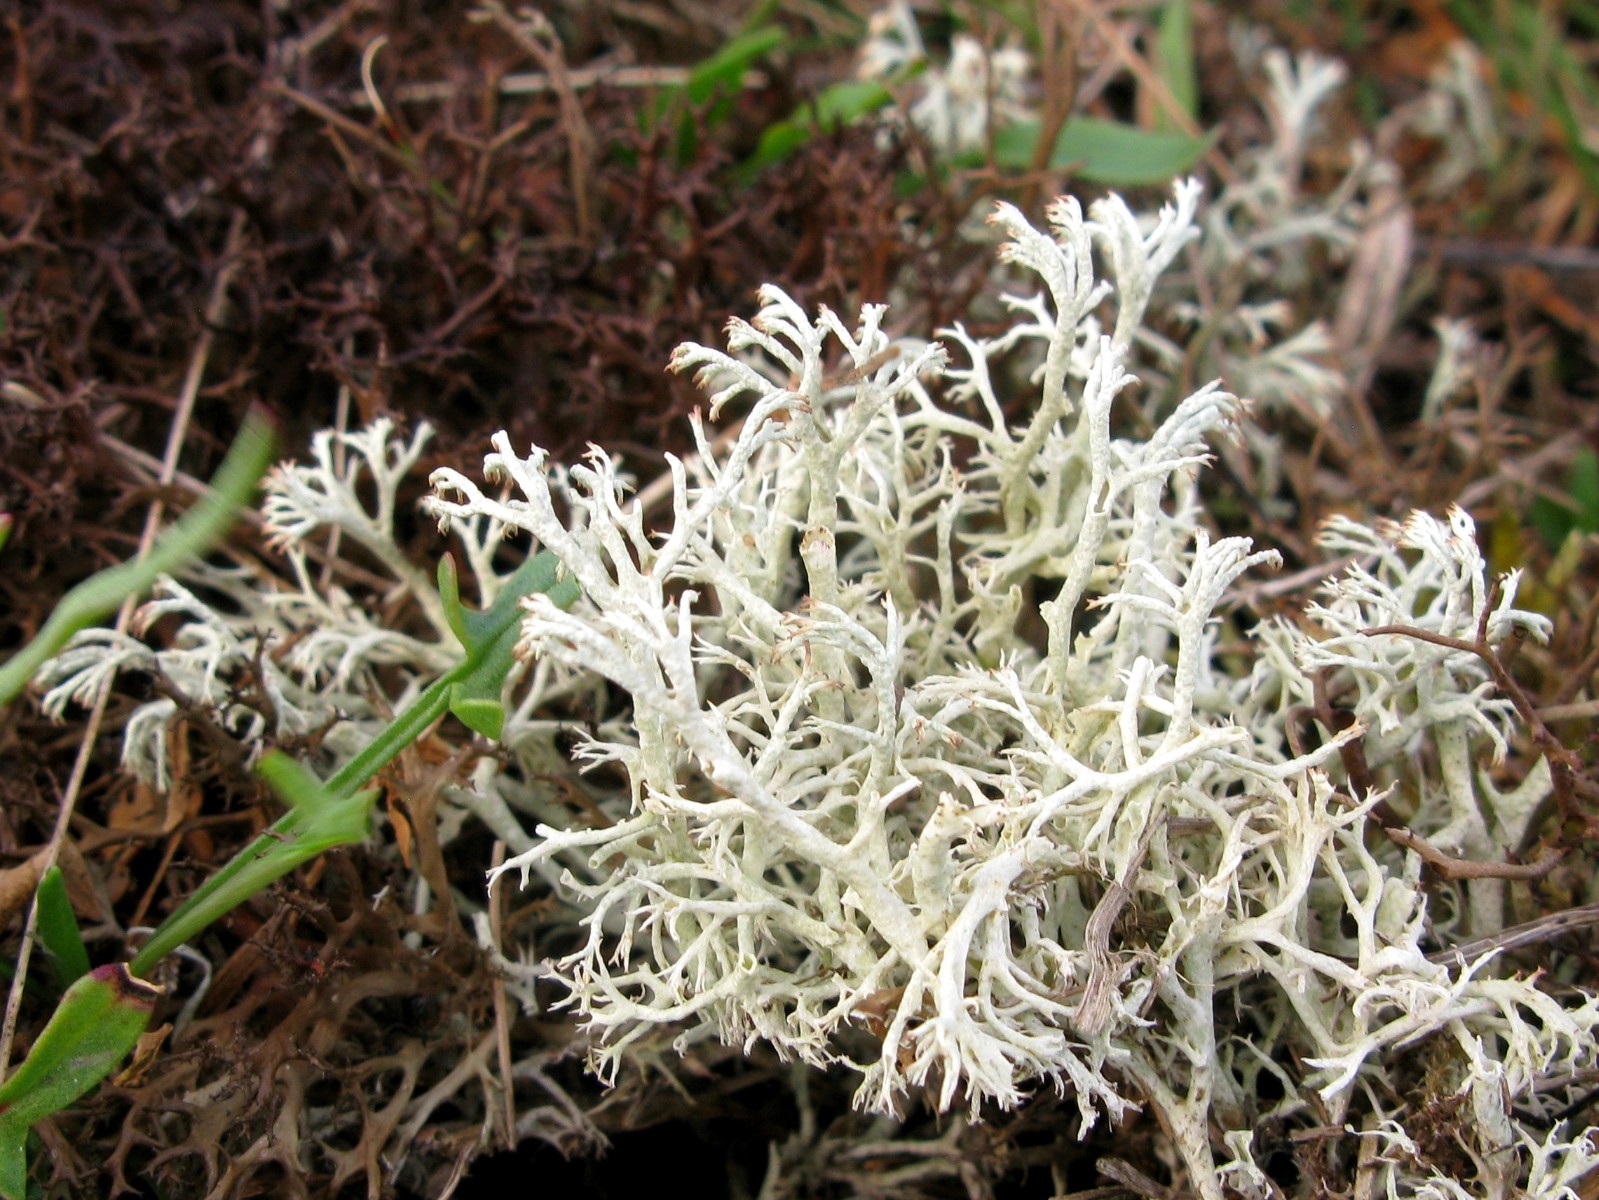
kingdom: Fungi
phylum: Ascomycota
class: Lecanoromycetes
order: Lecanorales
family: Cladoniaceae
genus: Cladonia
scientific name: Cladonia
